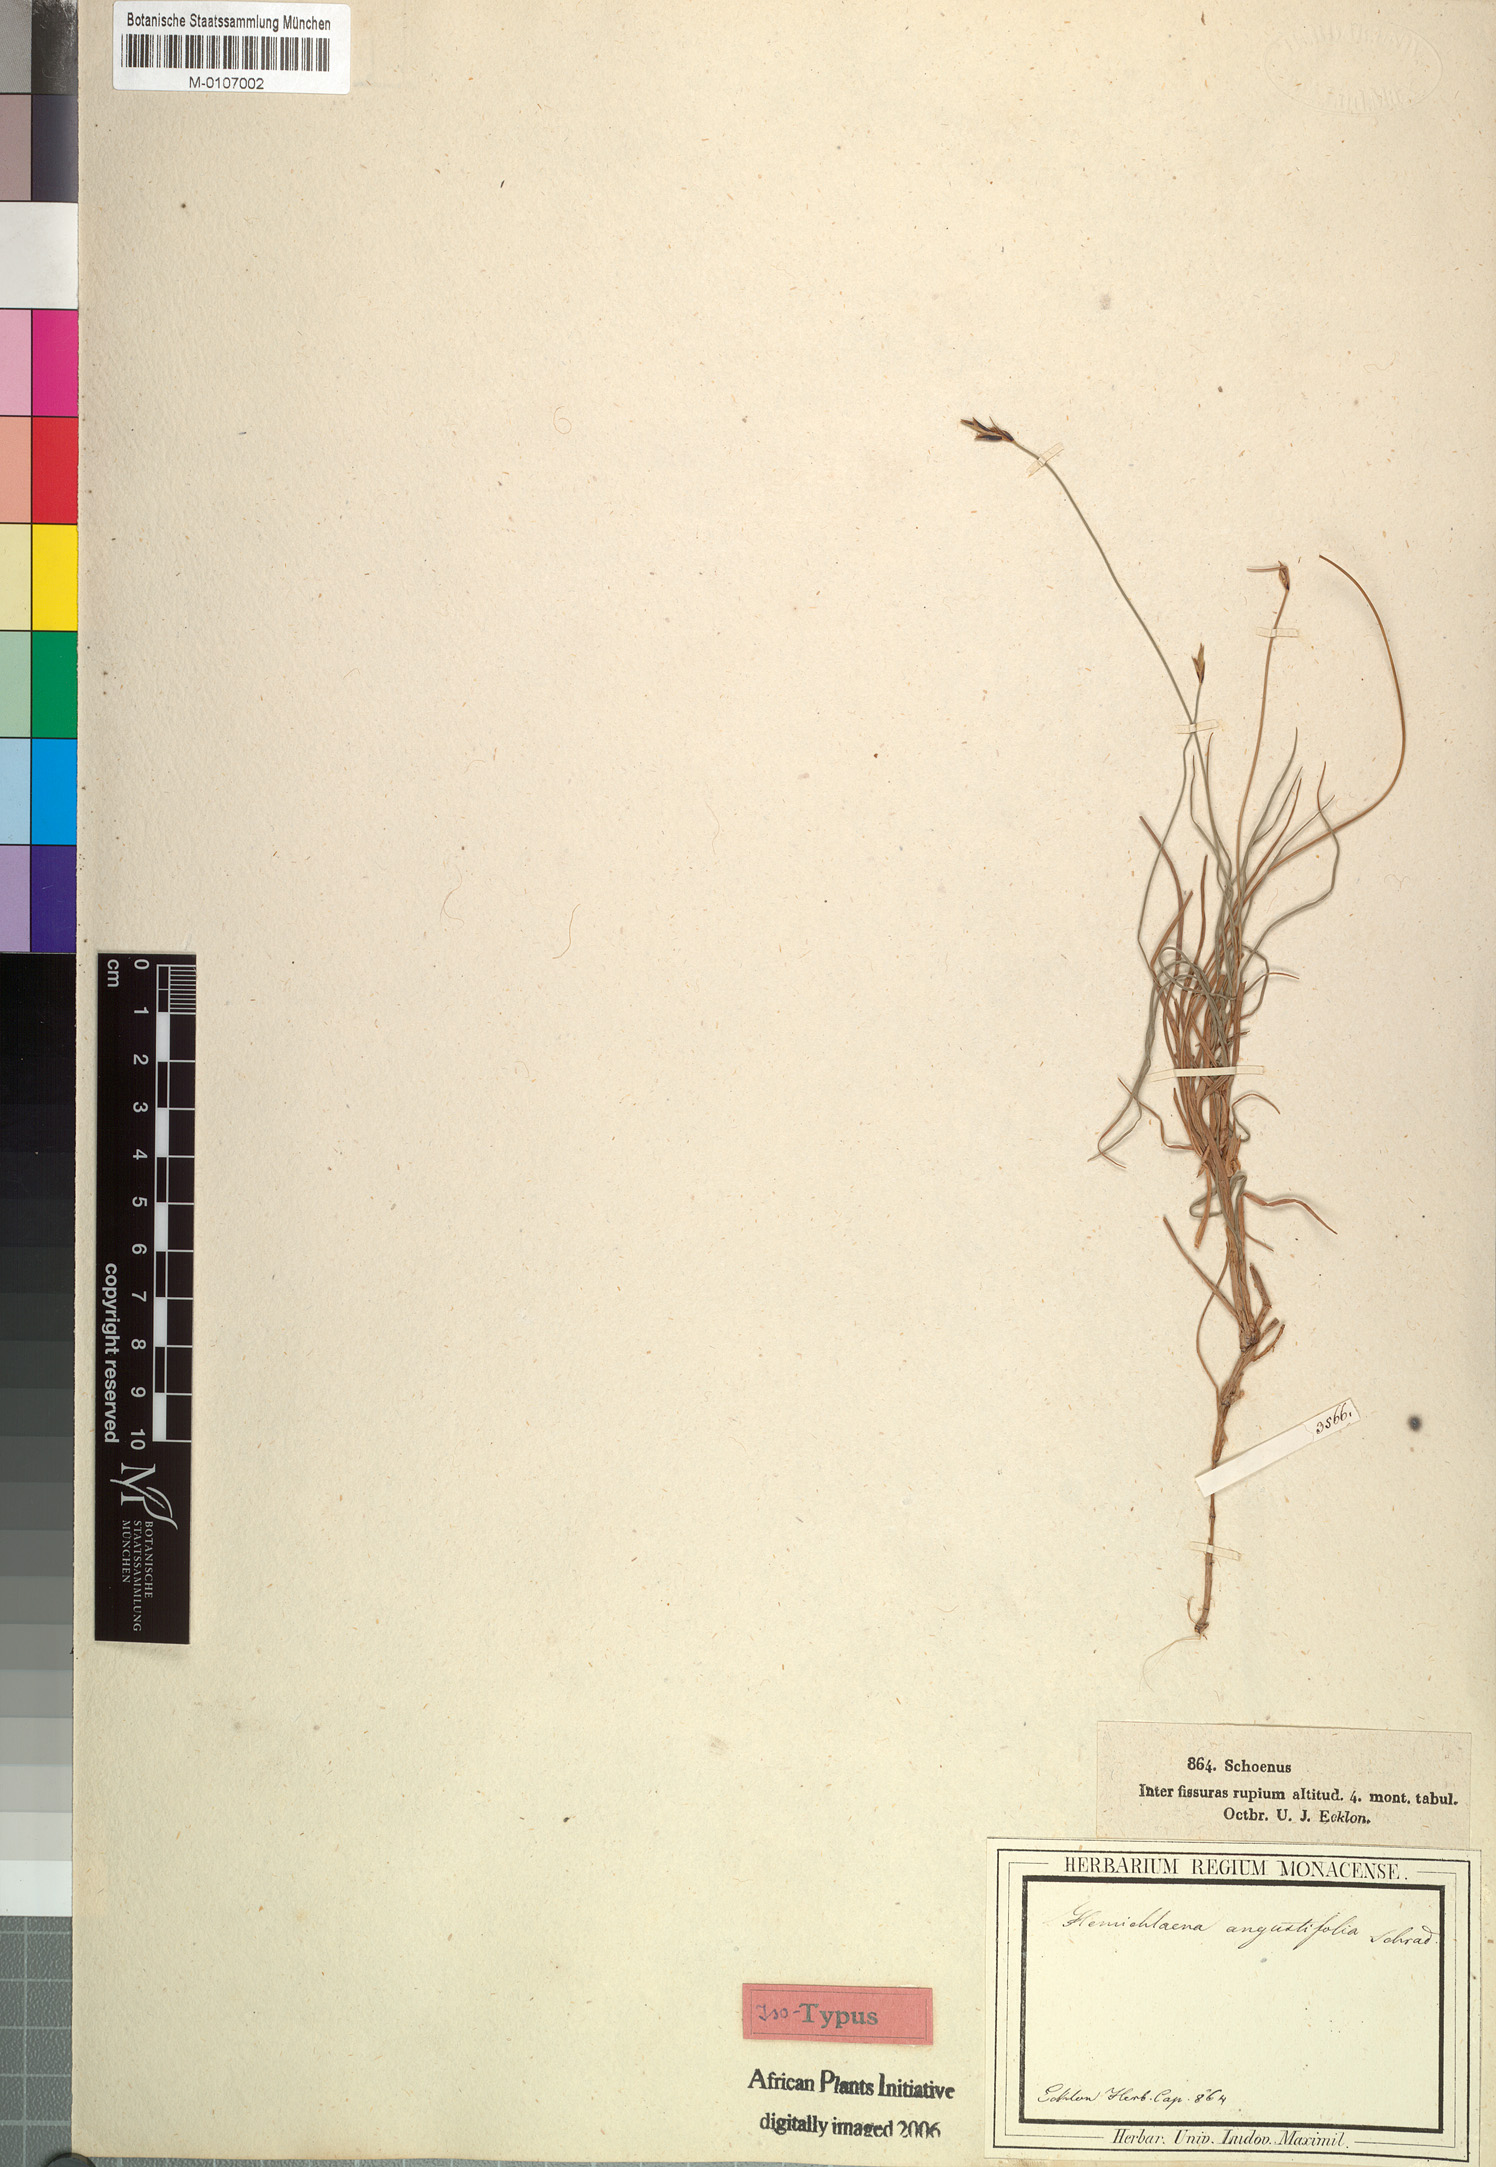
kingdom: Plantae
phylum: Tracheophyta
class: Liliopsida
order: Poales
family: Cyperaceae
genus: Ficinia
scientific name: Ficinia angustifolia
